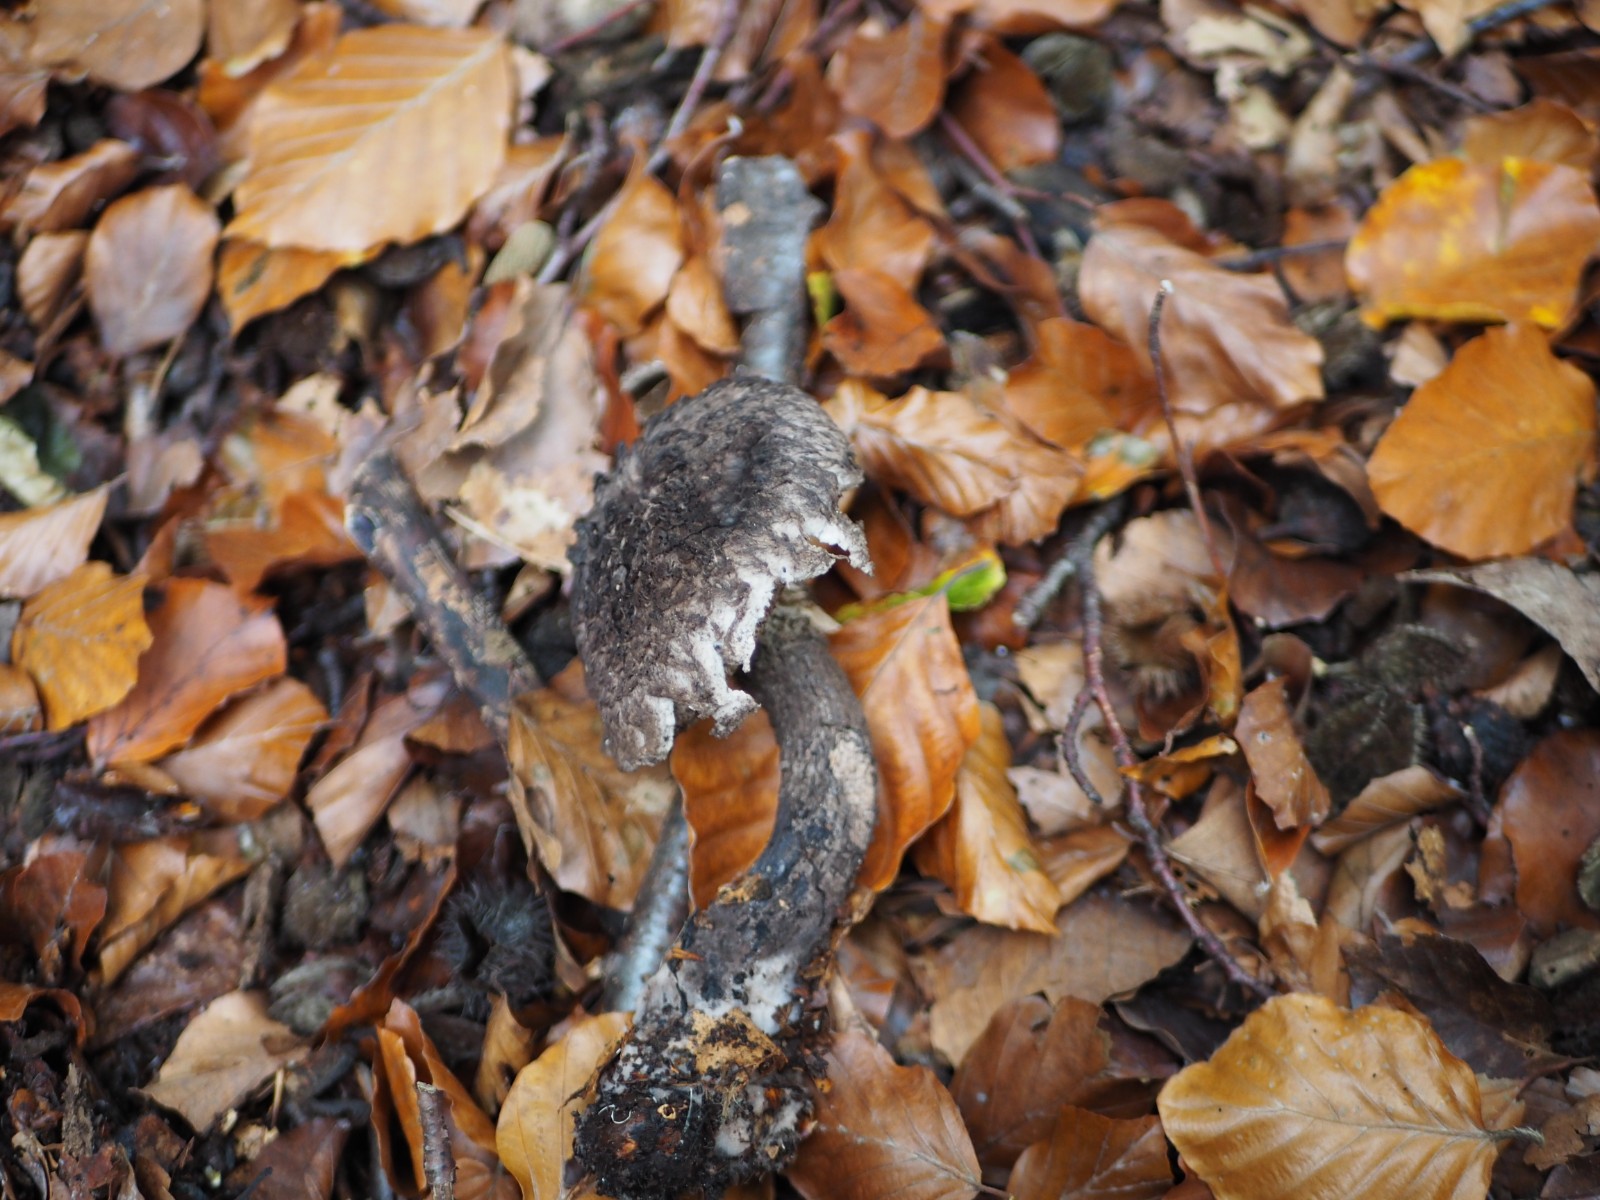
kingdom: Fungi
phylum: Basidiomycota
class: Agaricomycetes
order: Boletales
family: Boletaceae
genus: Strobilomyces
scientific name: Strobilomyces strobilaceus
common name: koglerørhat
